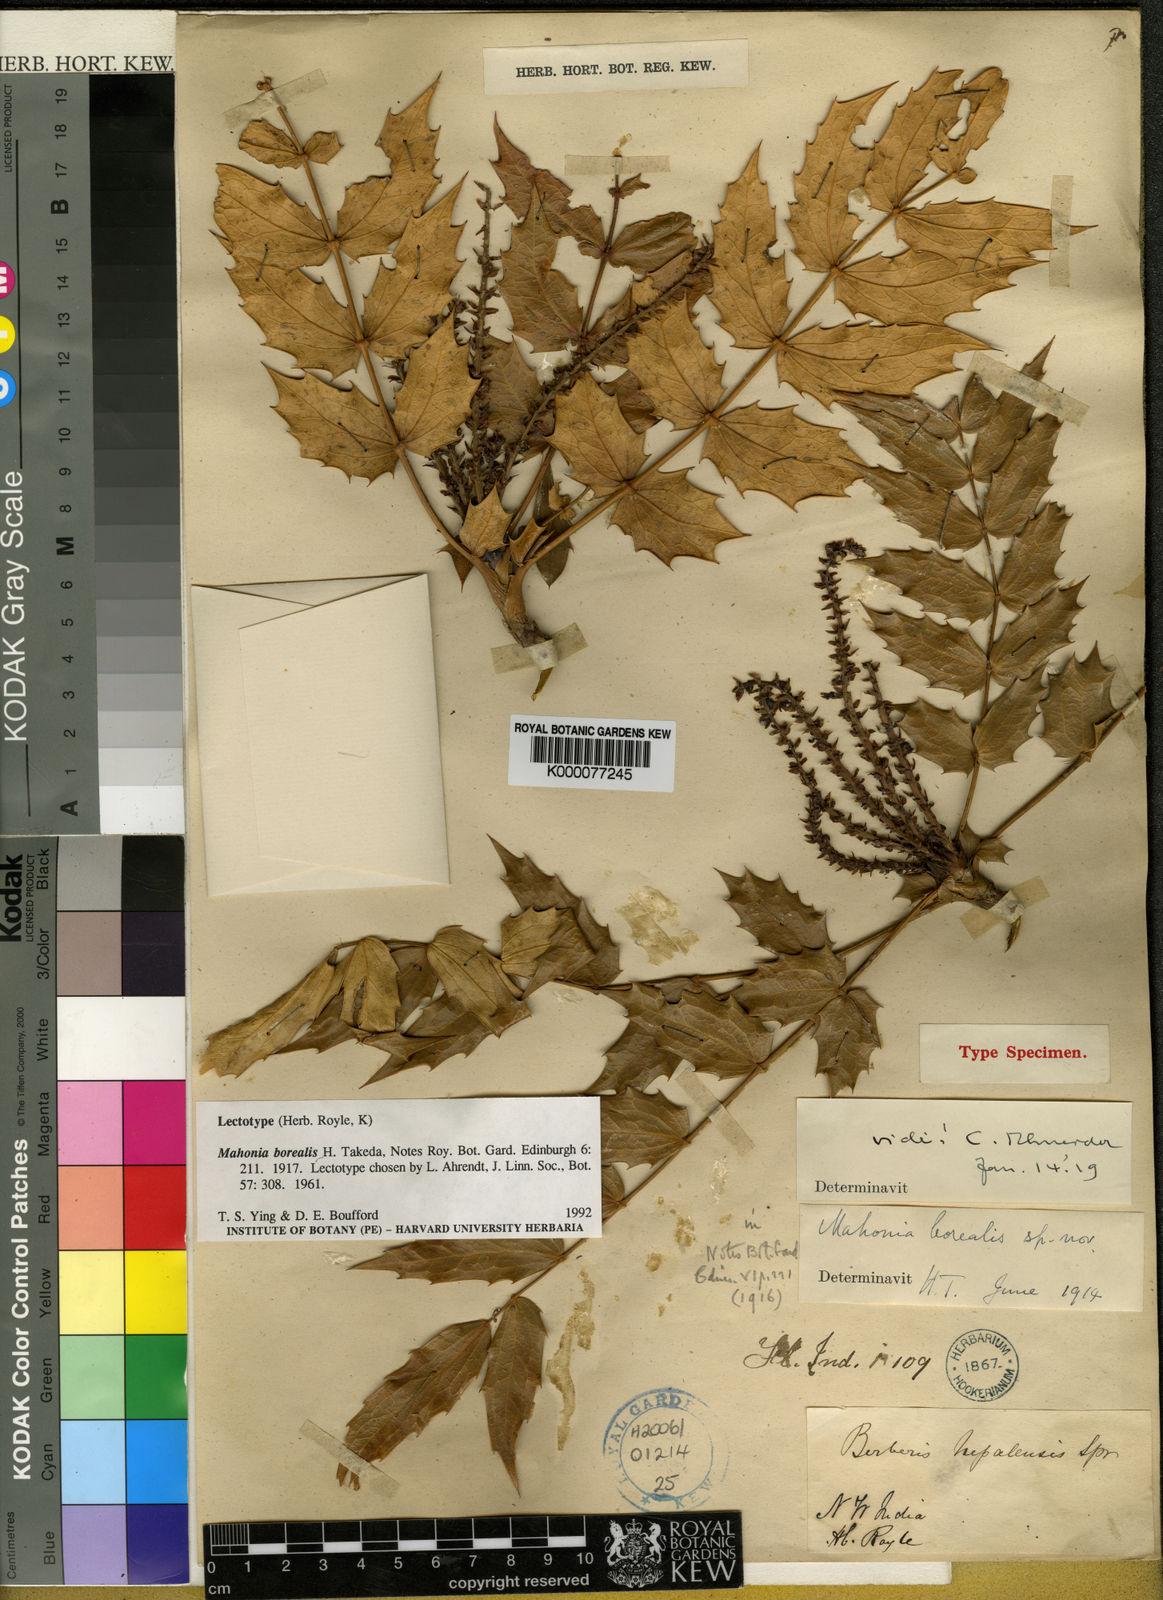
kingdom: Plantae
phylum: Tracheophyta
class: Magnoliopsida
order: Ranunculales
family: Berberidaceae
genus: Mahonia
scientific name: Mahonia napaulensis
